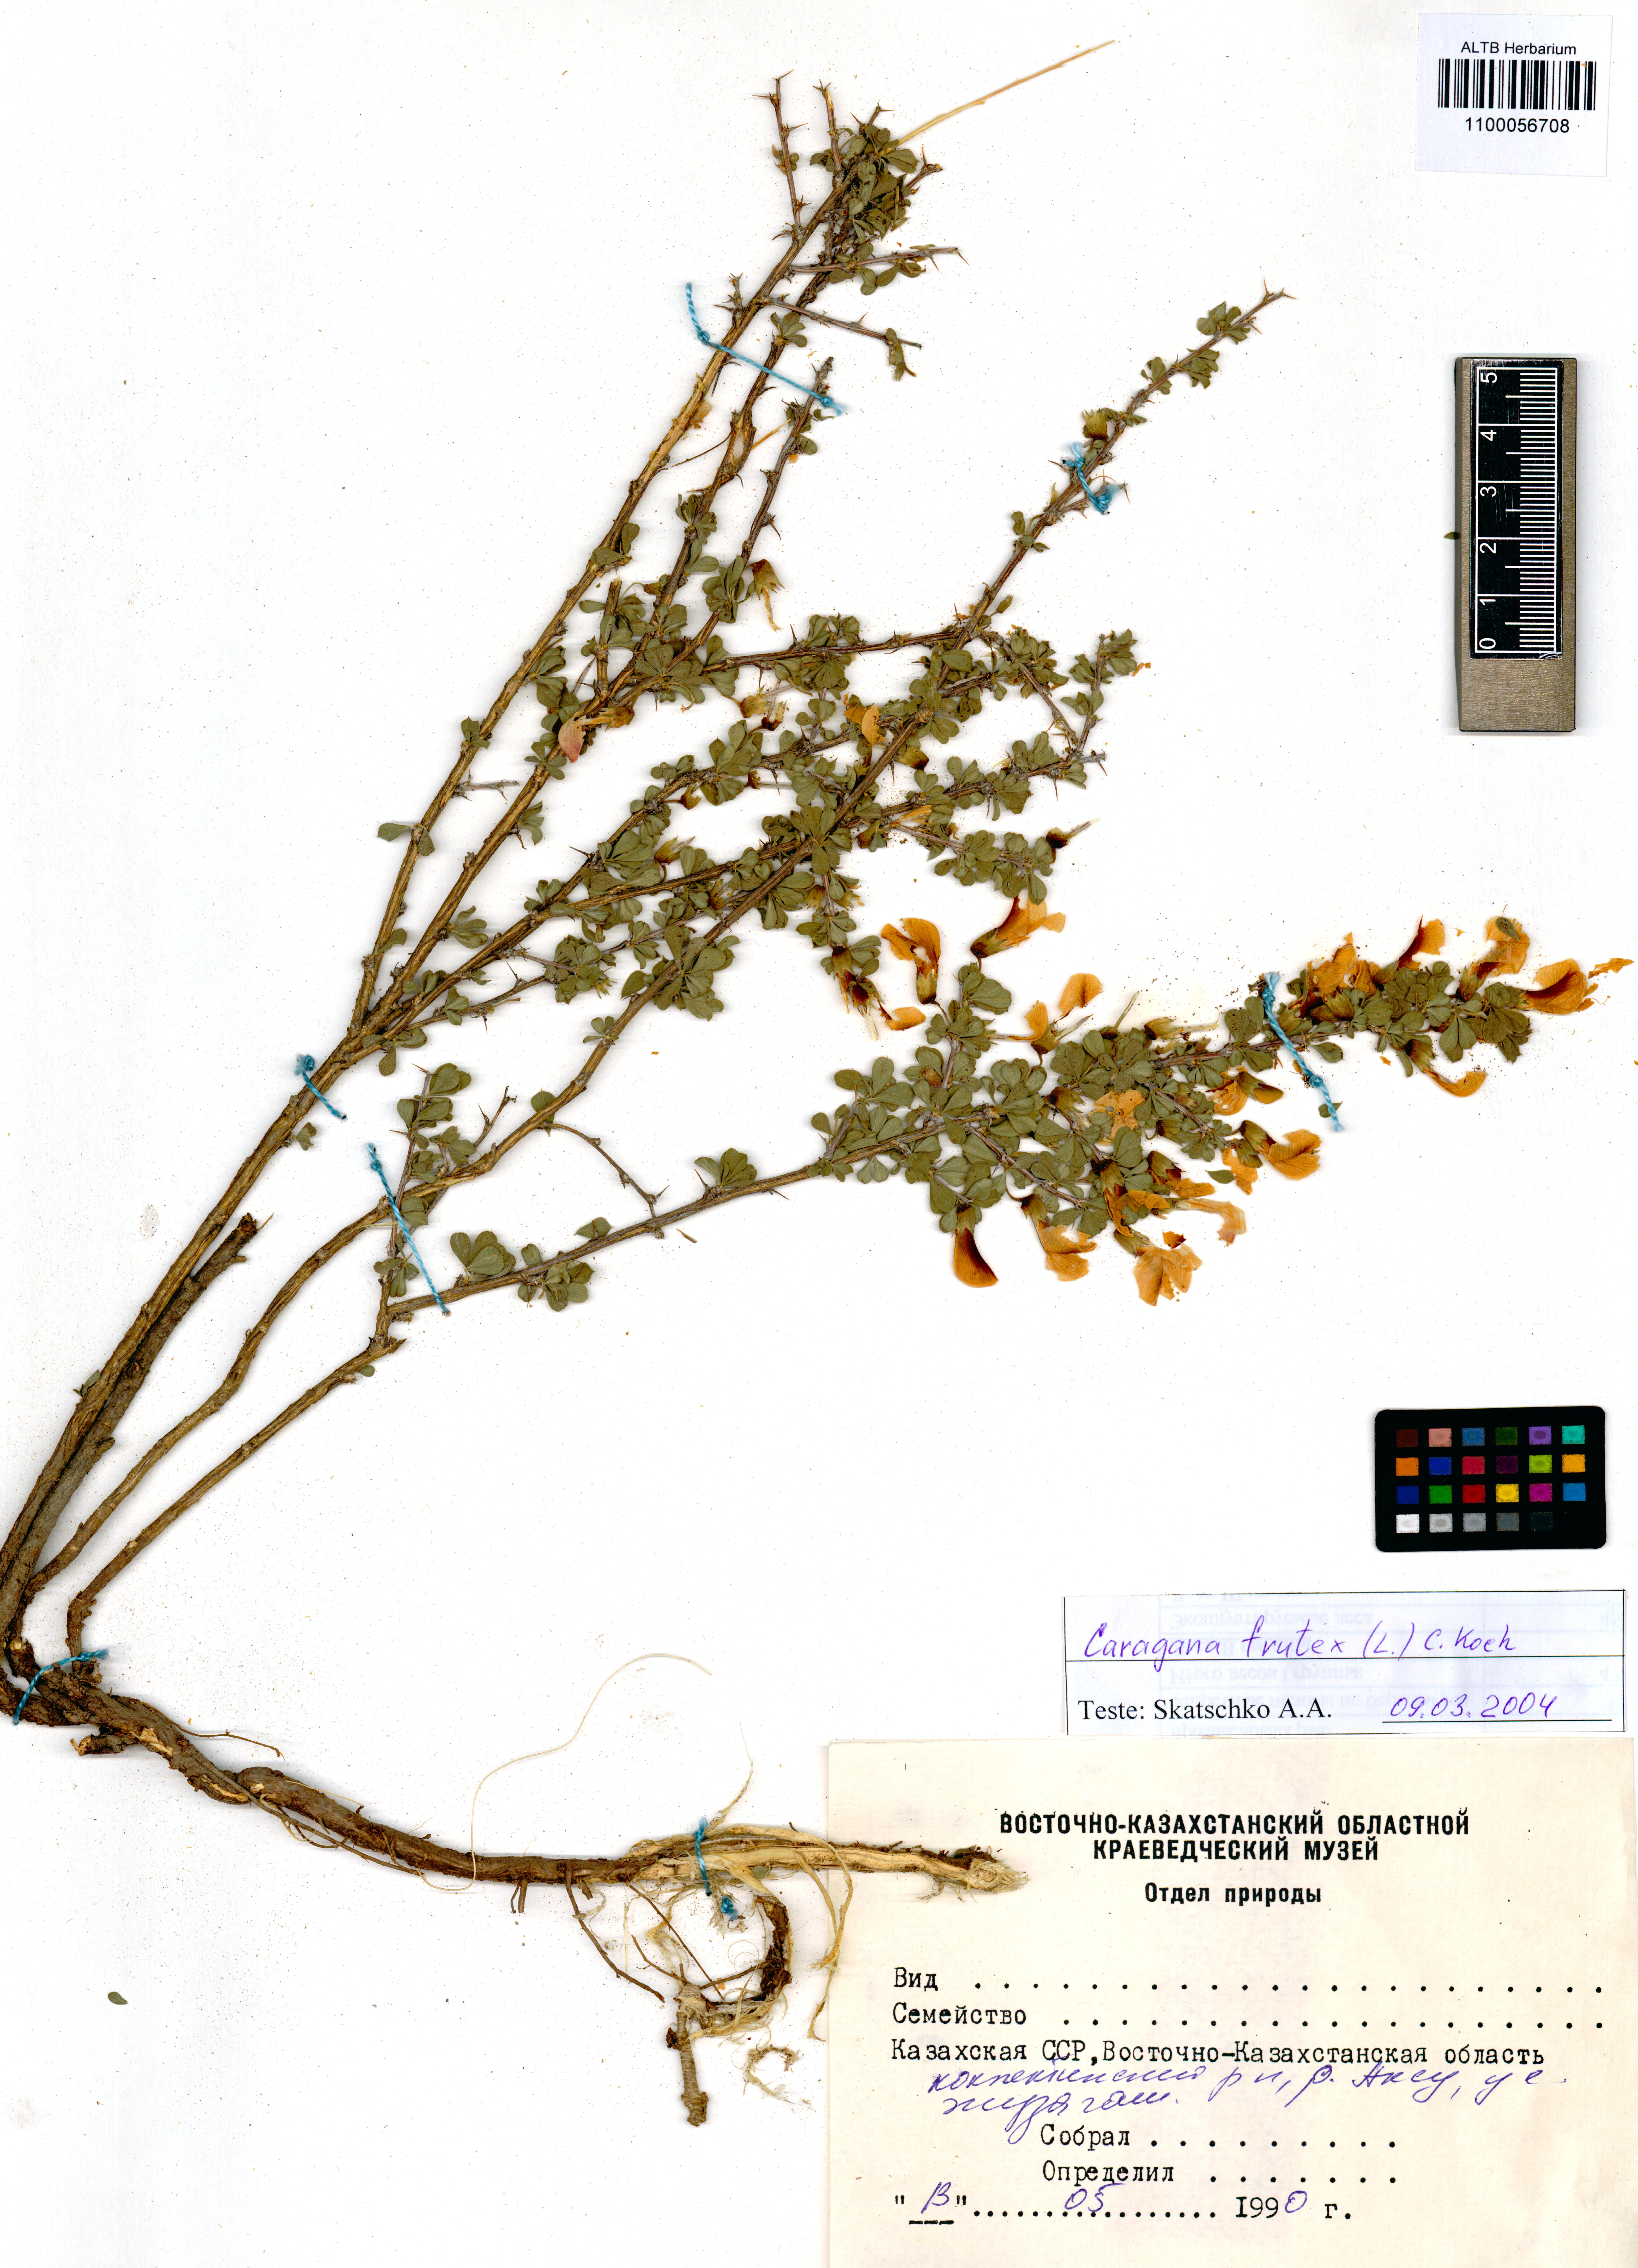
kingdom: Plantae
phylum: Tracheophyta
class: Magnoliopsida
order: Fabales
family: Fabaceae
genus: Caragana
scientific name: Caragana frutex
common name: Russian peashrub
